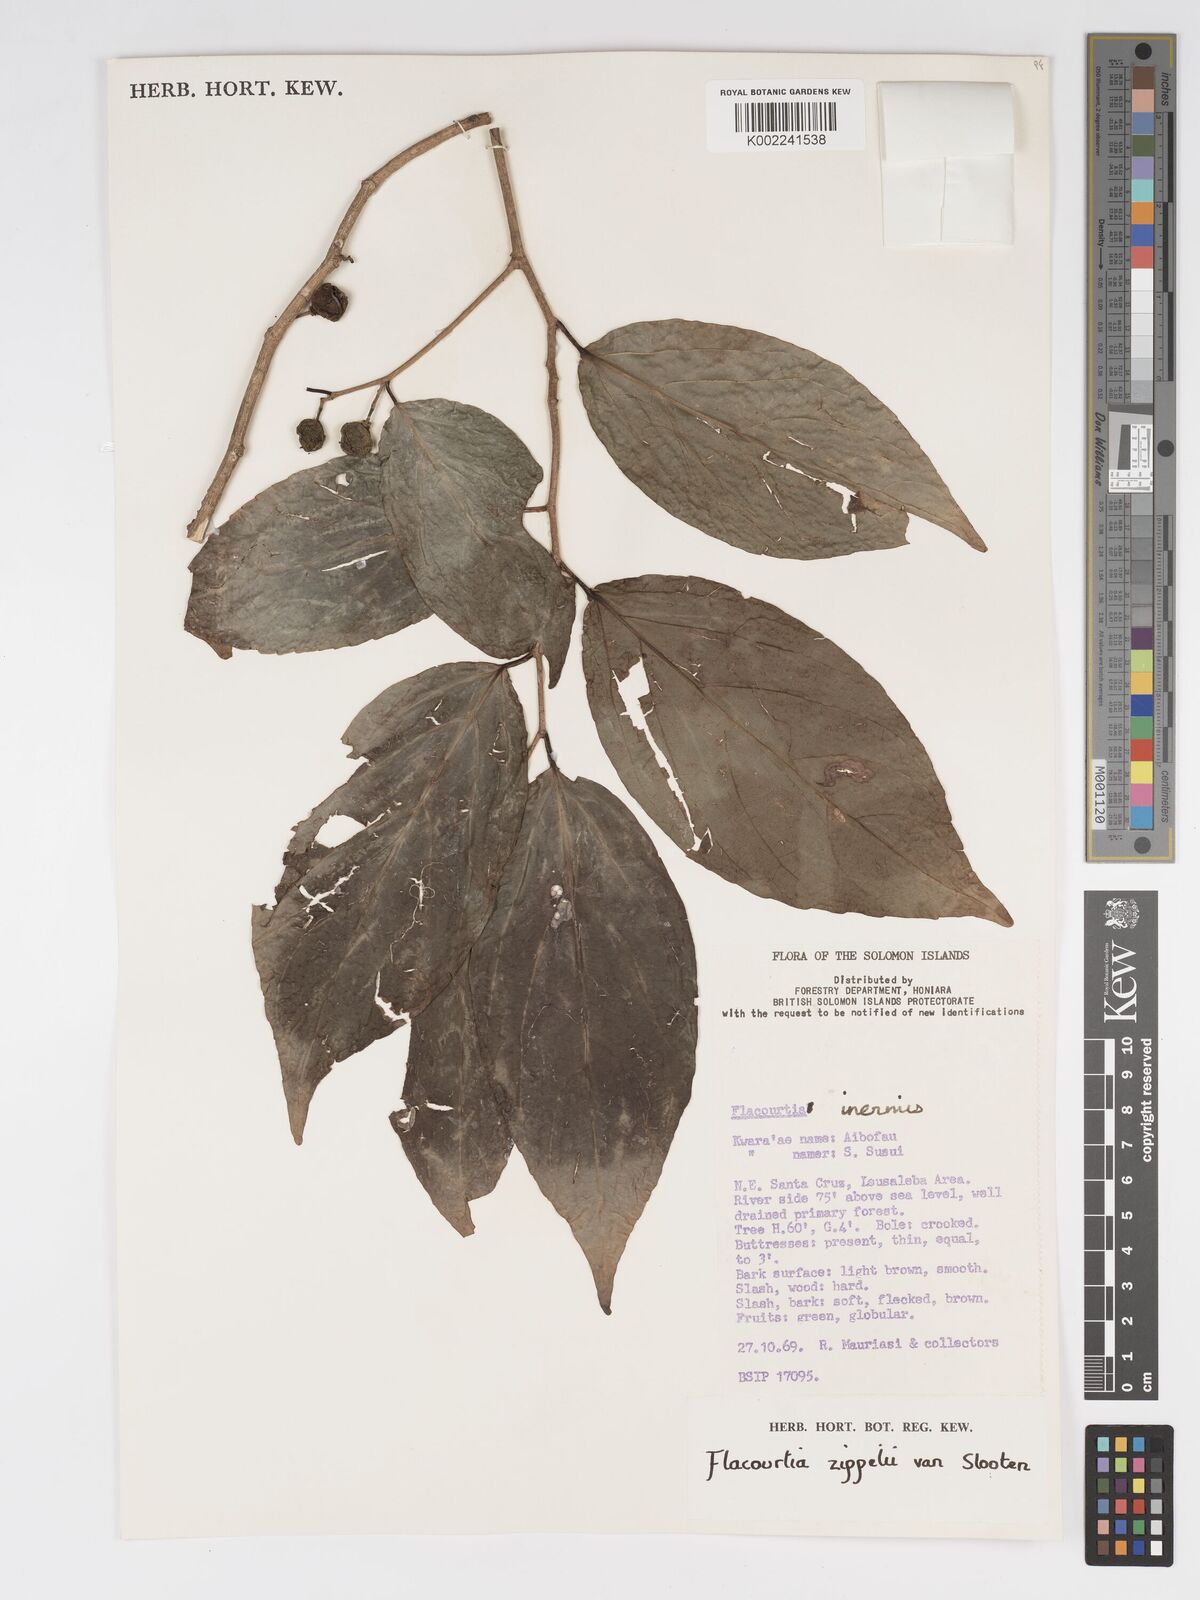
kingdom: Plantae
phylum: Tracheophyta
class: Magnoliopsida
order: Malpighiales
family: Salicaceae
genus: Flacourtia
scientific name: Flacourtia zippelii
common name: Zippeli plum
